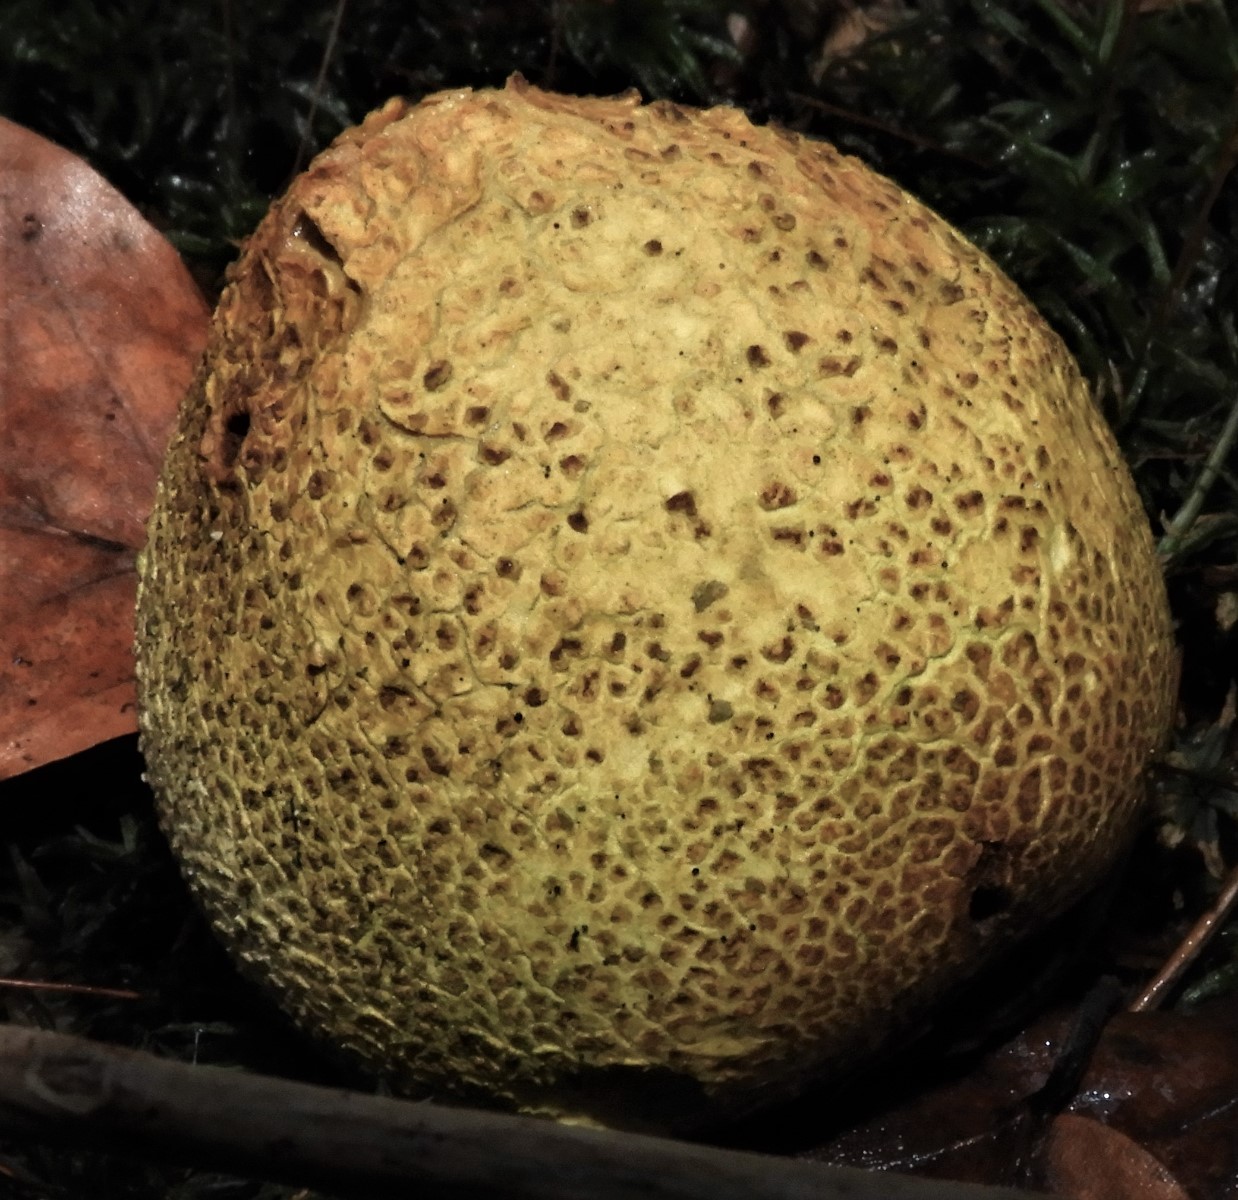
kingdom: Fungi
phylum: Basidiomycota
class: Agaricomycetes
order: Boletales
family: Sclerodermataceae
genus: Scleroderma
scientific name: Scleroderma citrinum
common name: almindelig bruskbold
